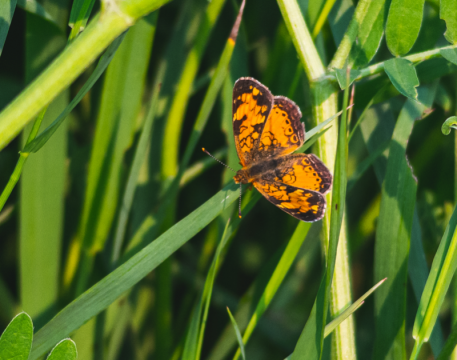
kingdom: Animalia
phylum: Arthropoda
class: Insecta
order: Lepidoptera
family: Nymphalidae
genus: Phyciodes
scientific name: Phyciodes tharos
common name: Northern Crescent
